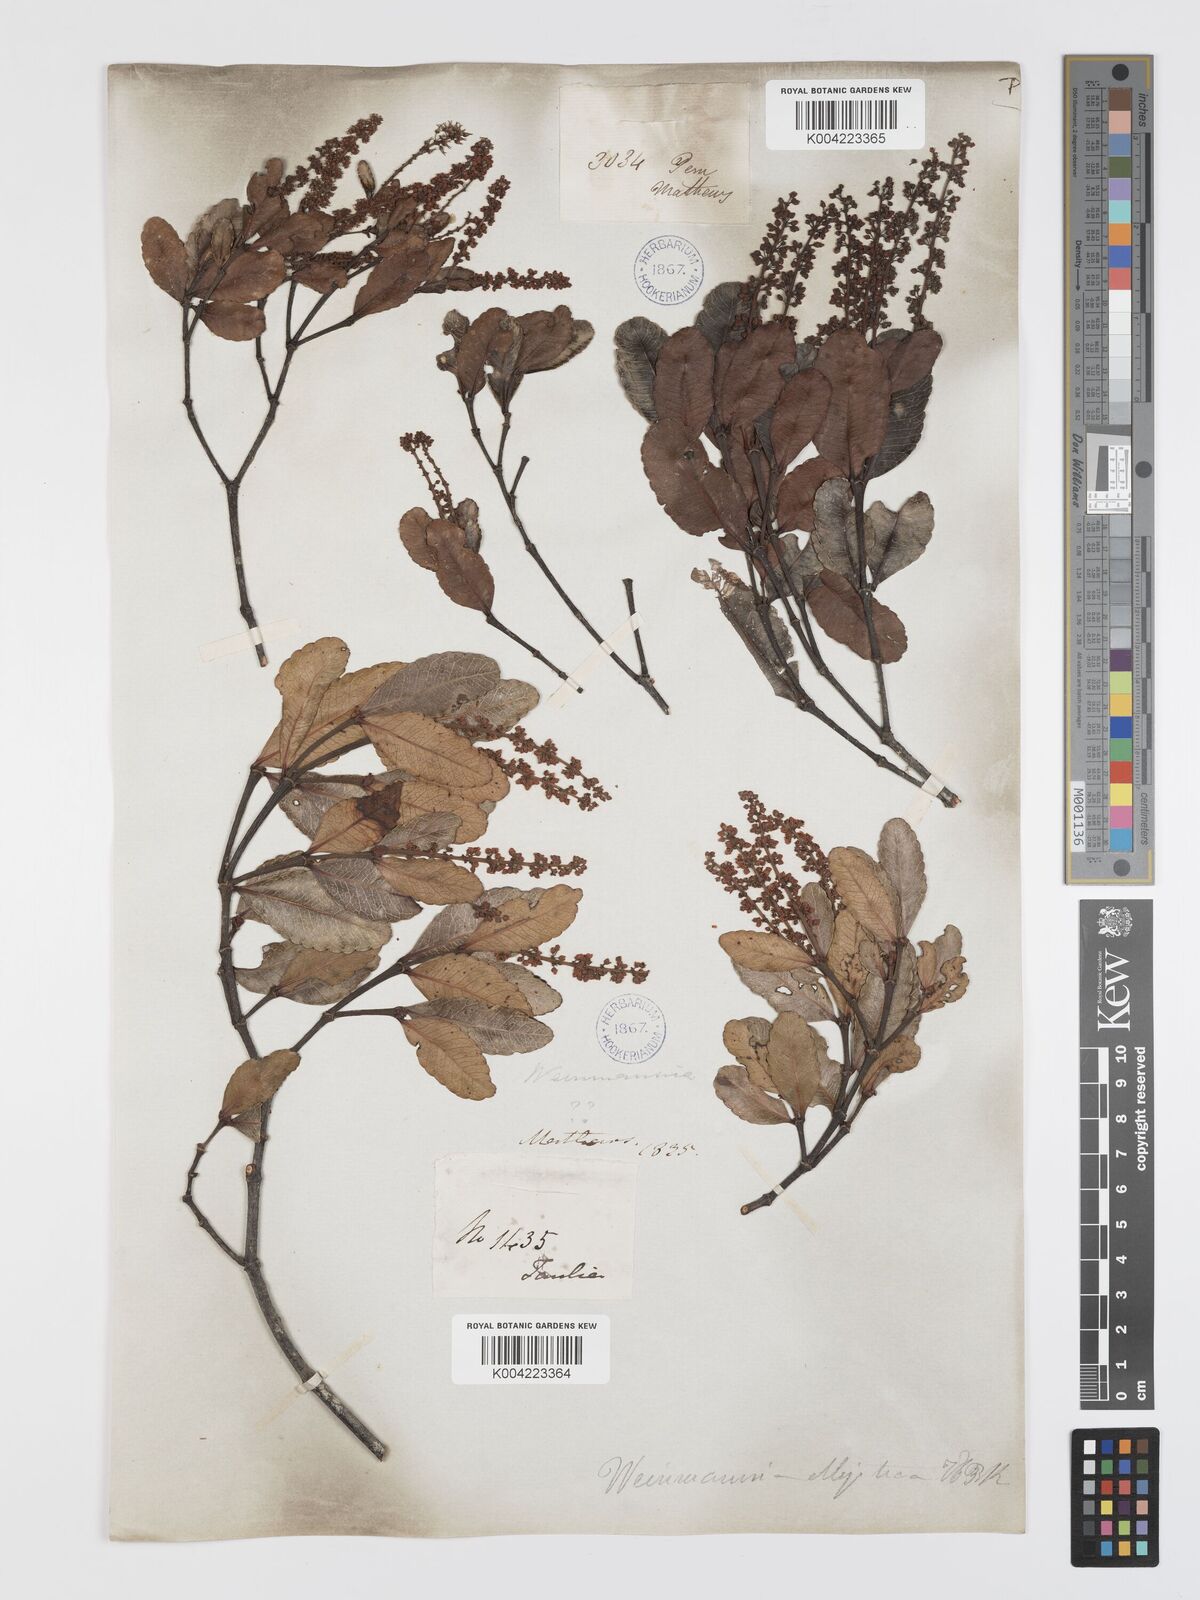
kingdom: Plantae
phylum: Tracheophyta
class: Magnoliopsida
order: Oxalidales
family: Cunoniaceae
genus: Weinmannia
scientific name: Weinmannia elliptica
